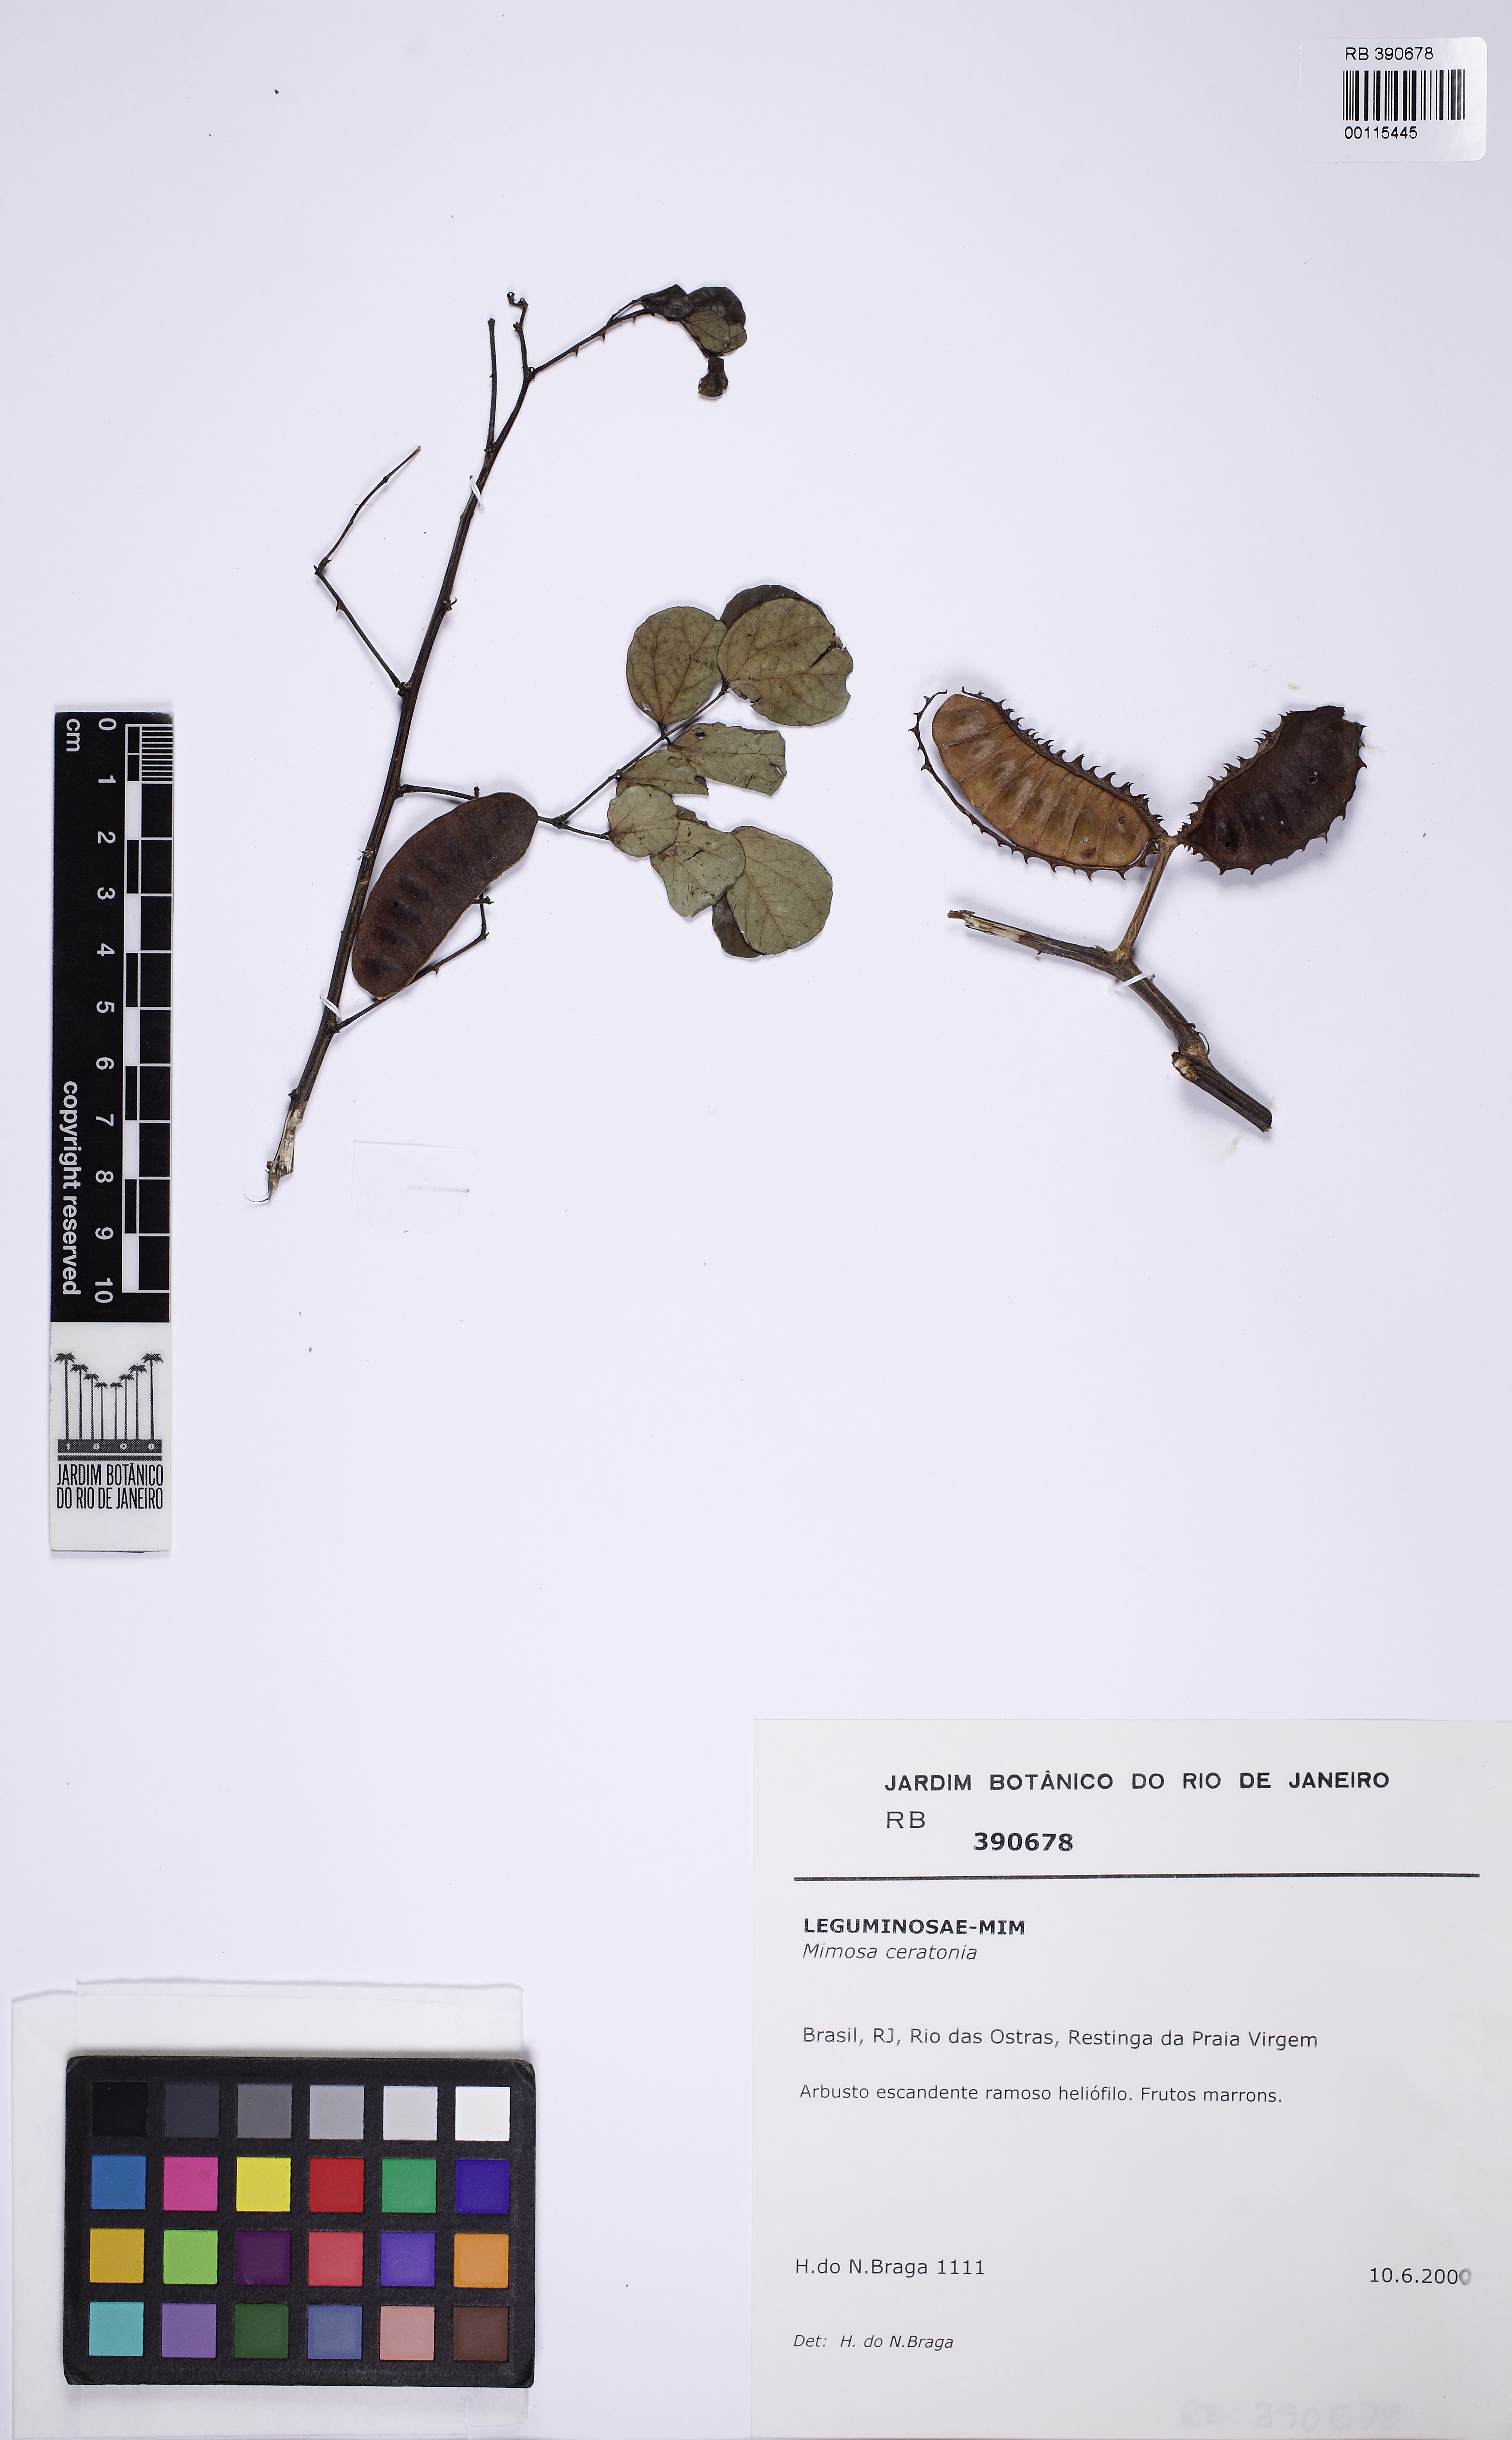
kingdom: Plantae
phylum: Tracheophyta
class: Magnoliopsida
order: Fabales
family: Fabaceae
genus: Mimosa
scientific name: Mimosa ceratonia
